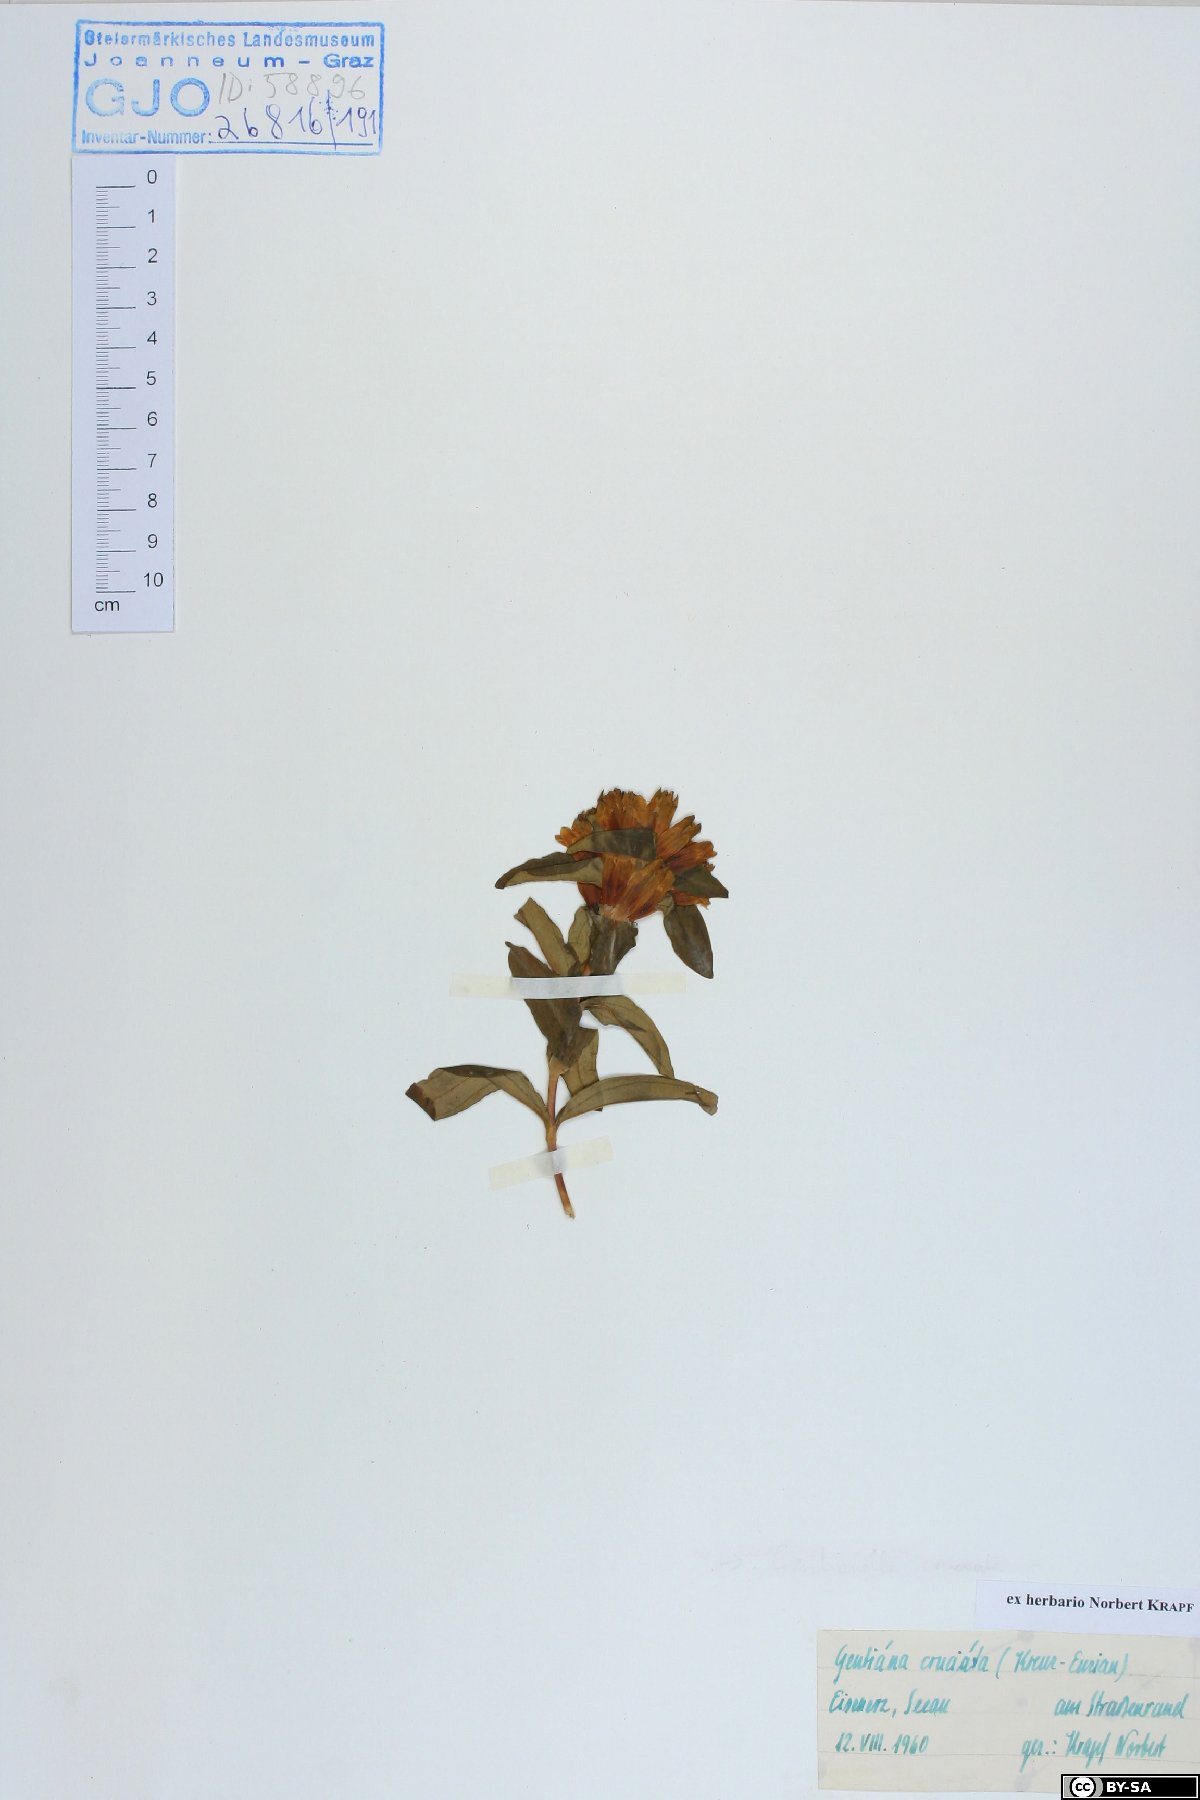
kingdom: Plantae
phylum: Tracheophyta
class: Magnoliopsida
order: Gentianales
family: Gentianaceae
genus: Gentiana
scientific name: Gentiana cruciata
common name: Cross gentian
